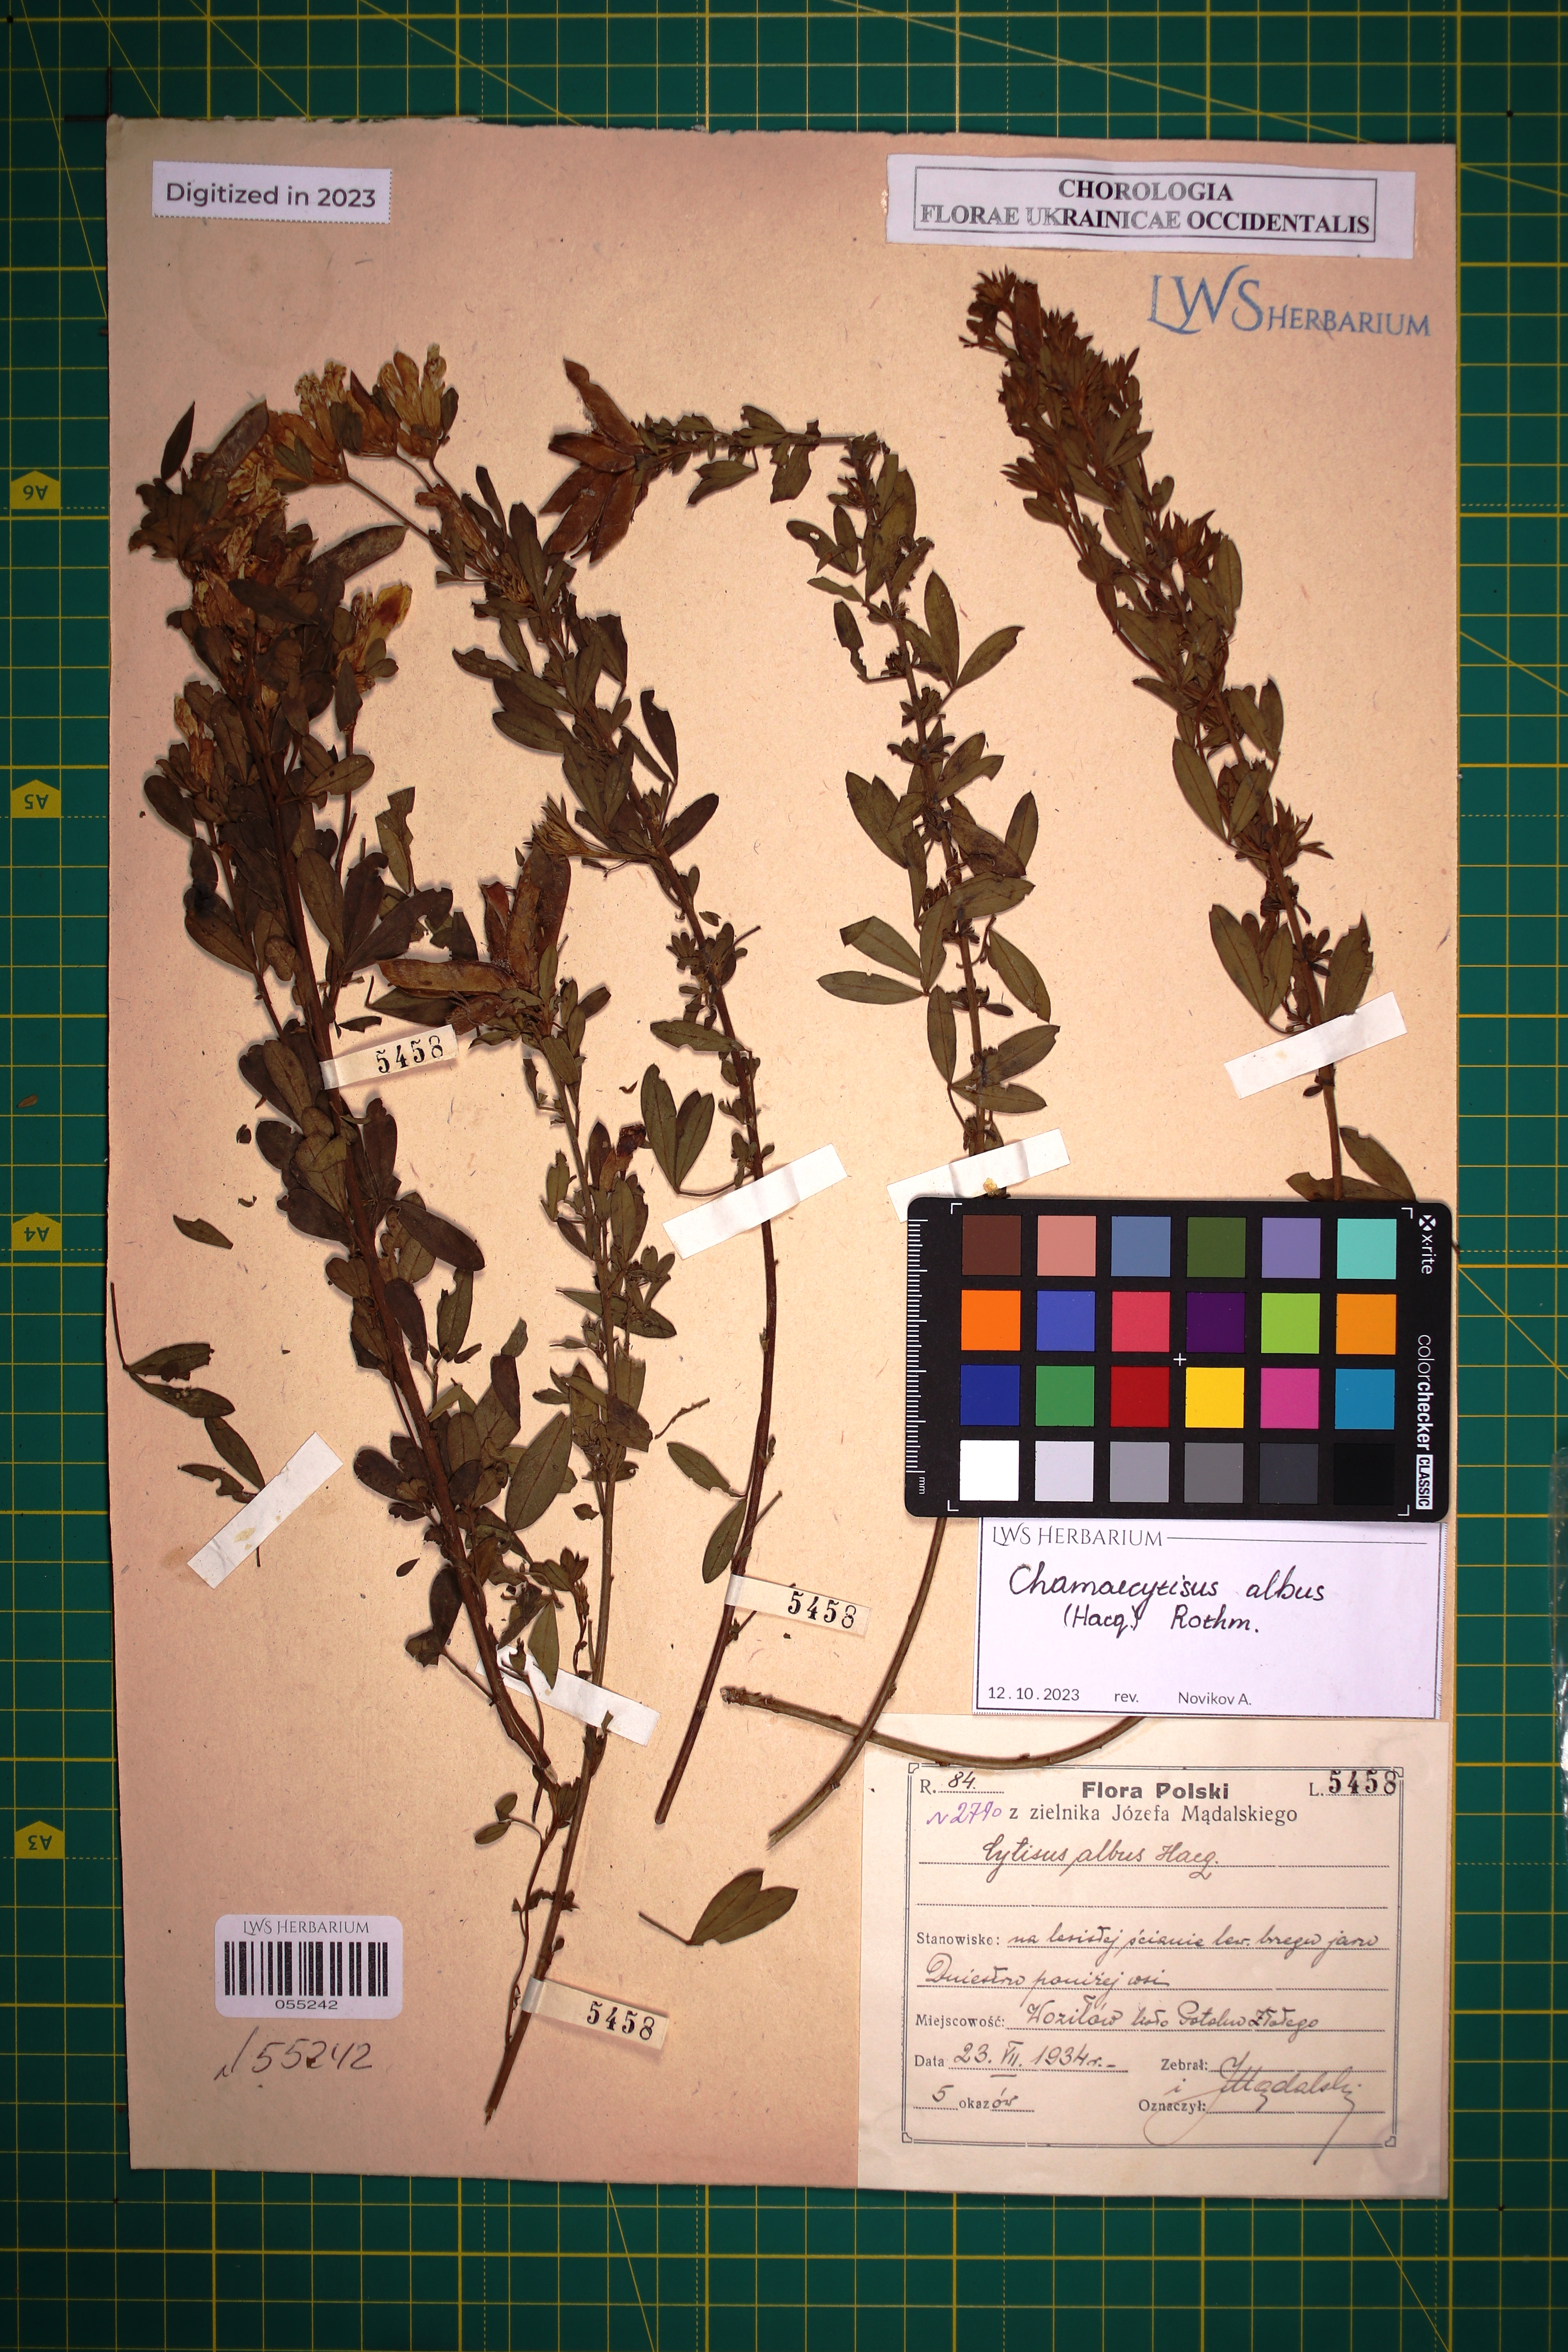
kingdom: Plantae
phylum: Tracheophyta
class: Magnoliopsida
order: Fabales
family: Fabaceae
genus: Chamaecytisus
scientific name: Chamaecytisus albus
